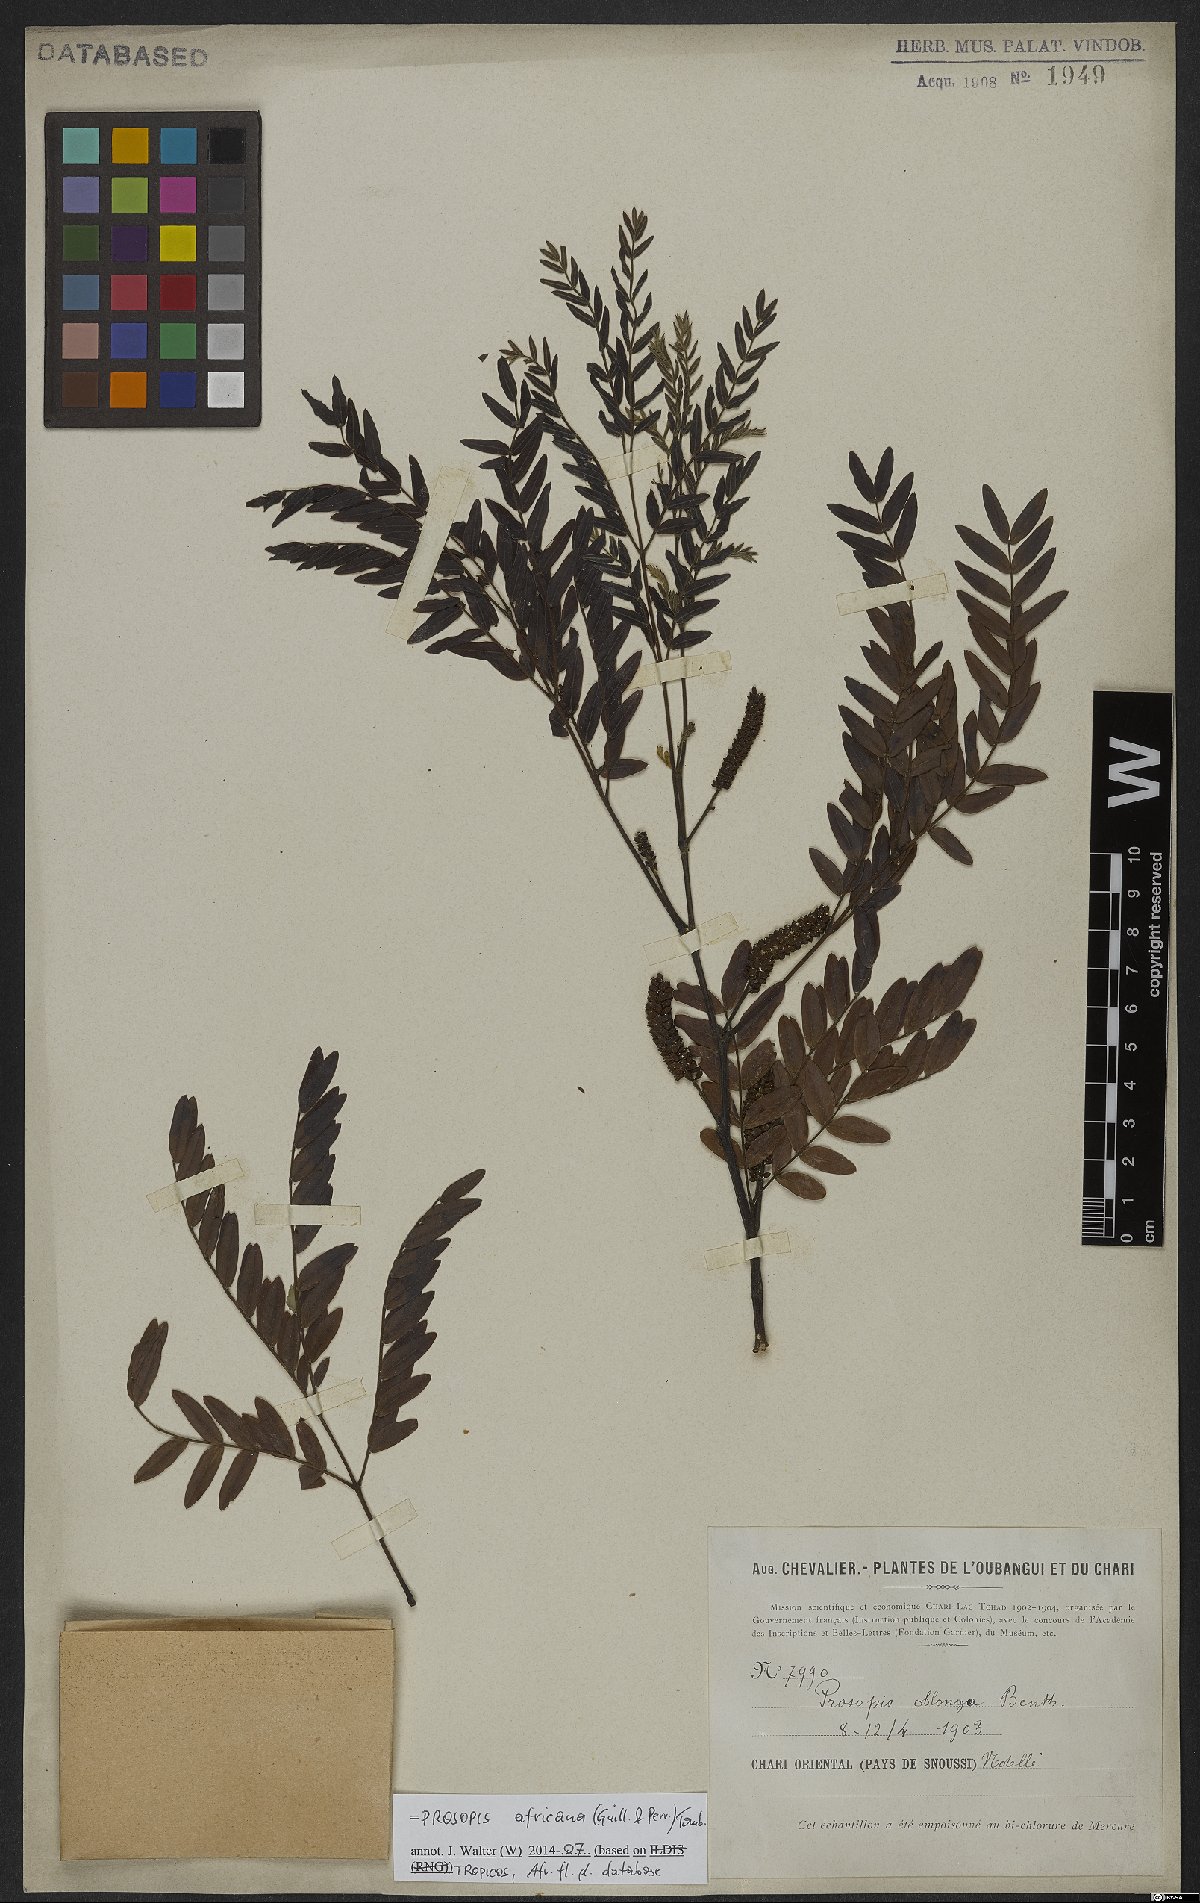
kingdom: Plantae
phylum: Tracheophyta
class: Magnoliopsida
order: Fabales
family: Fabaceae
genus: Prosopis
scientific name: Prosopis africana
